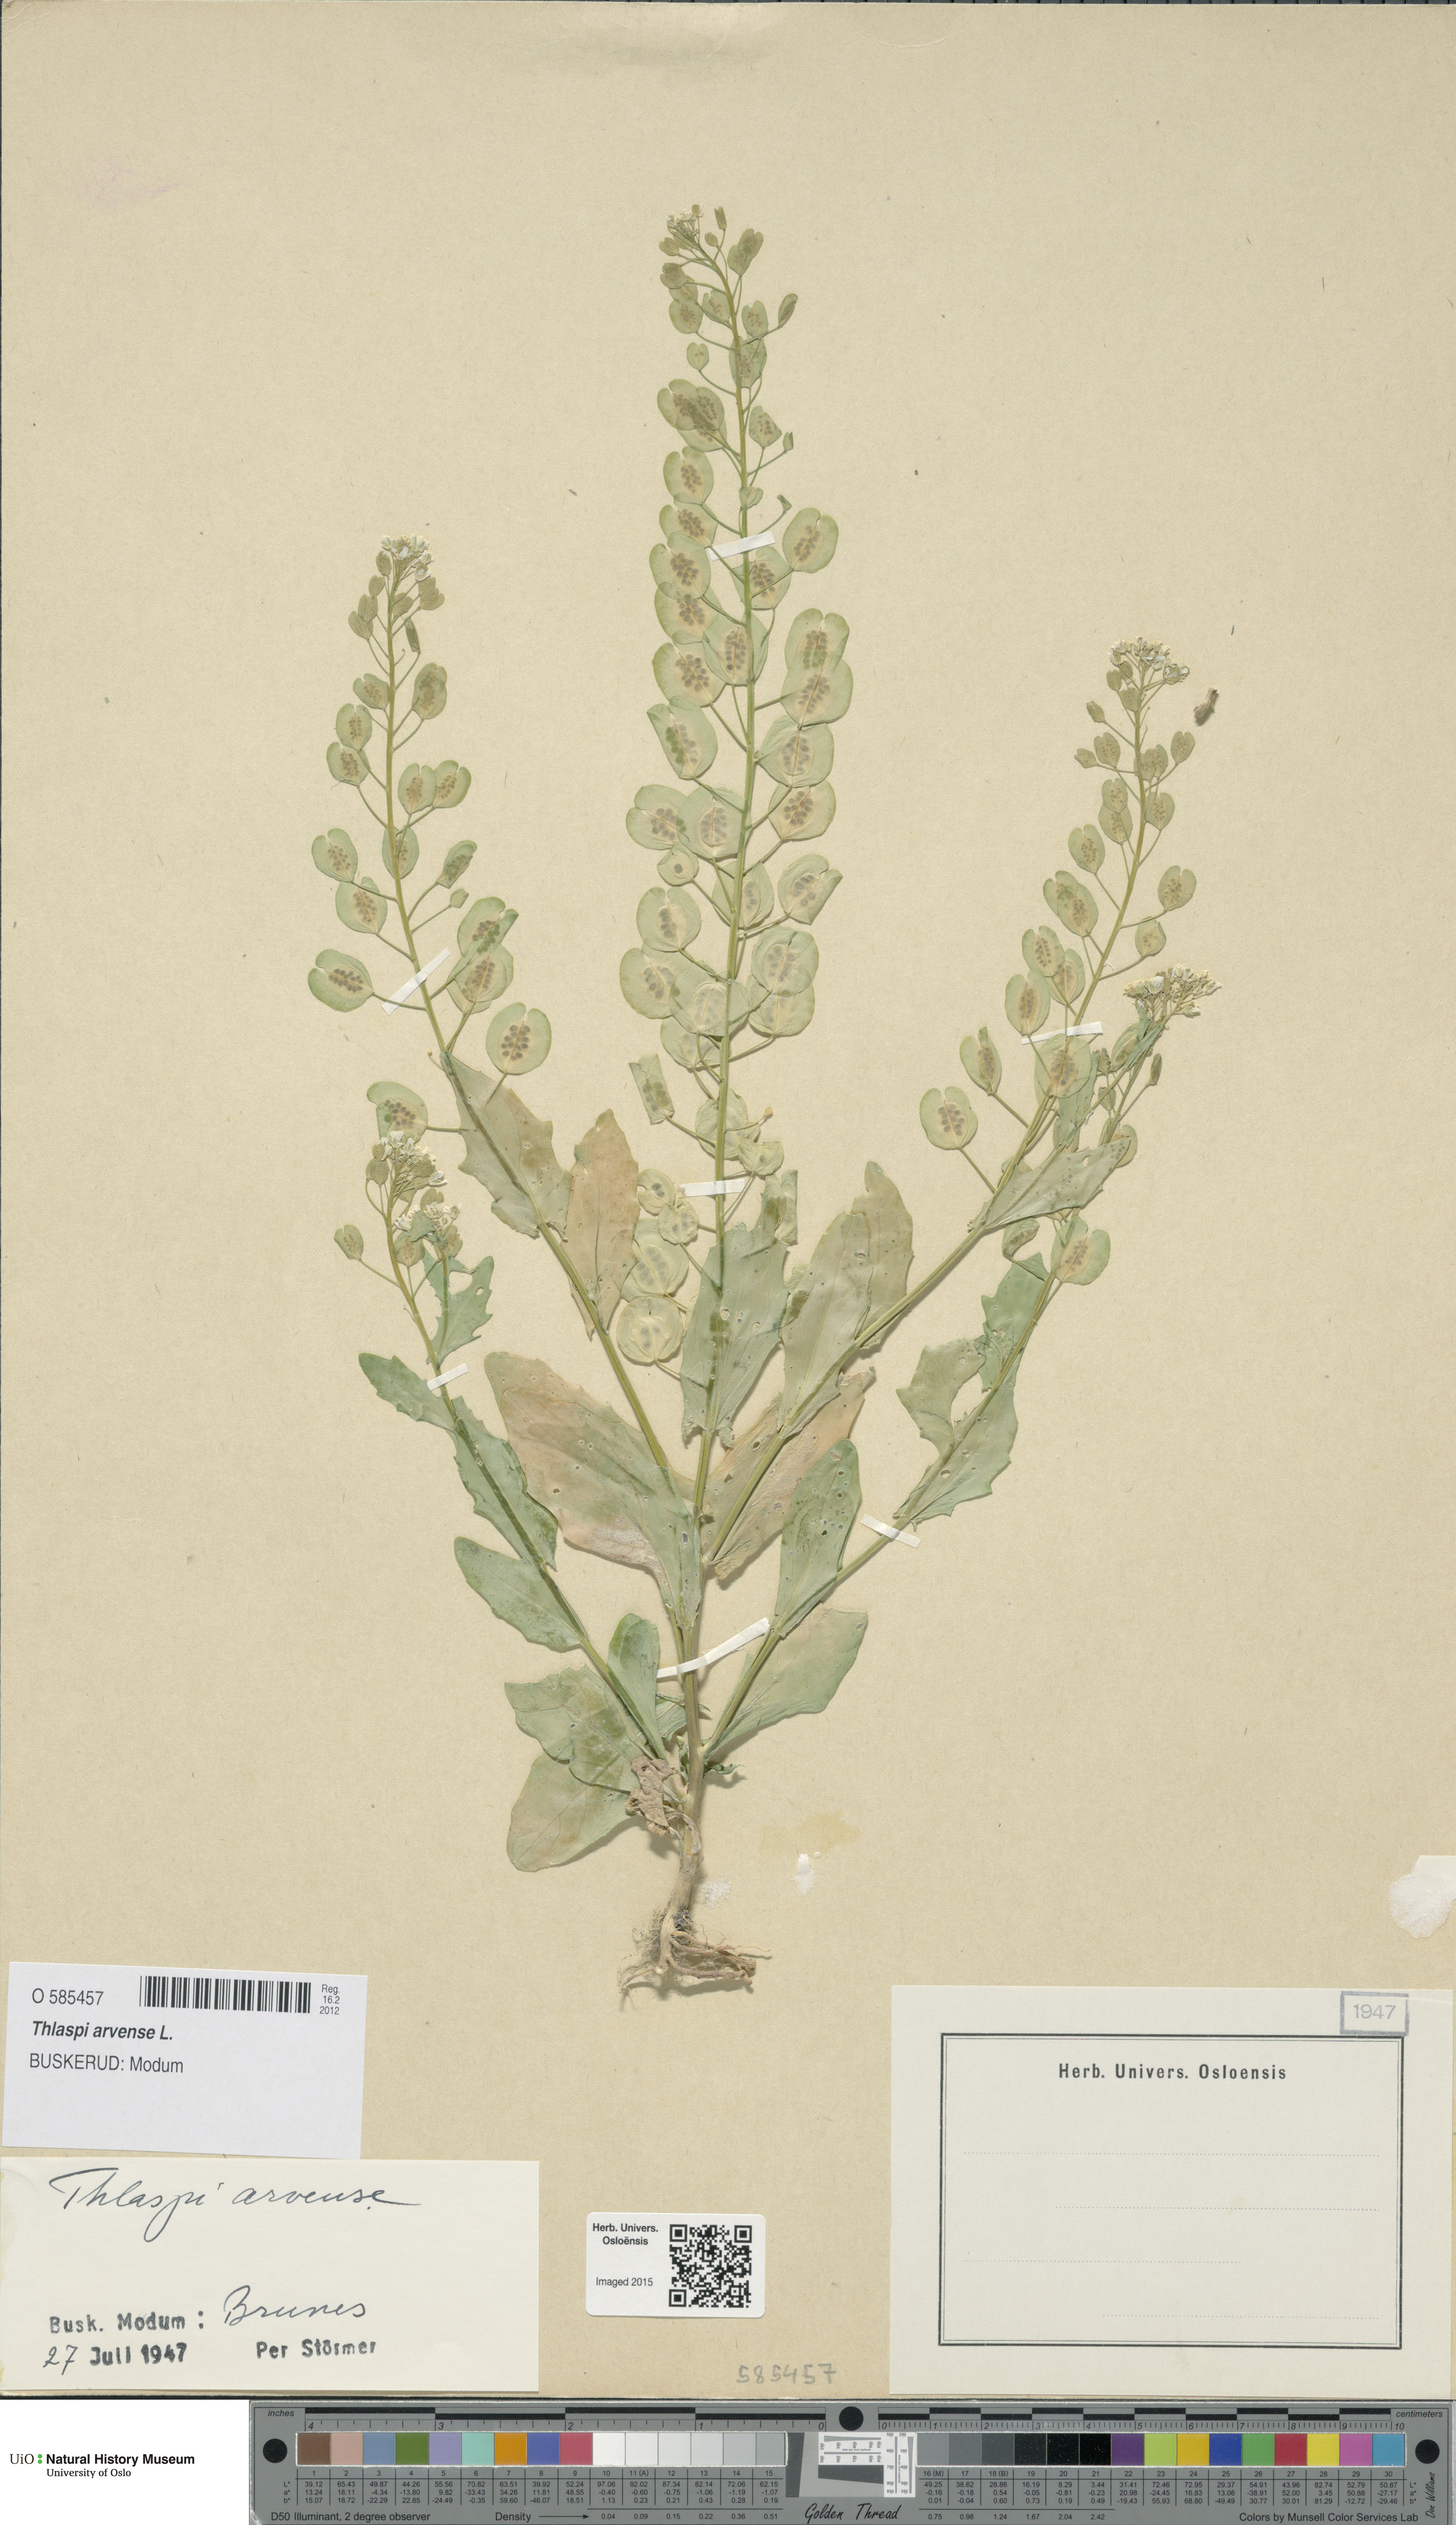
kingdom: Plantae
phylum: Tracheophyta
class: Magnoliopsida
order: Brassicales
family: Brassicaceae
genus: Thlaspi
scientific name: Thlaspi arvense
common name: Field pennycress
